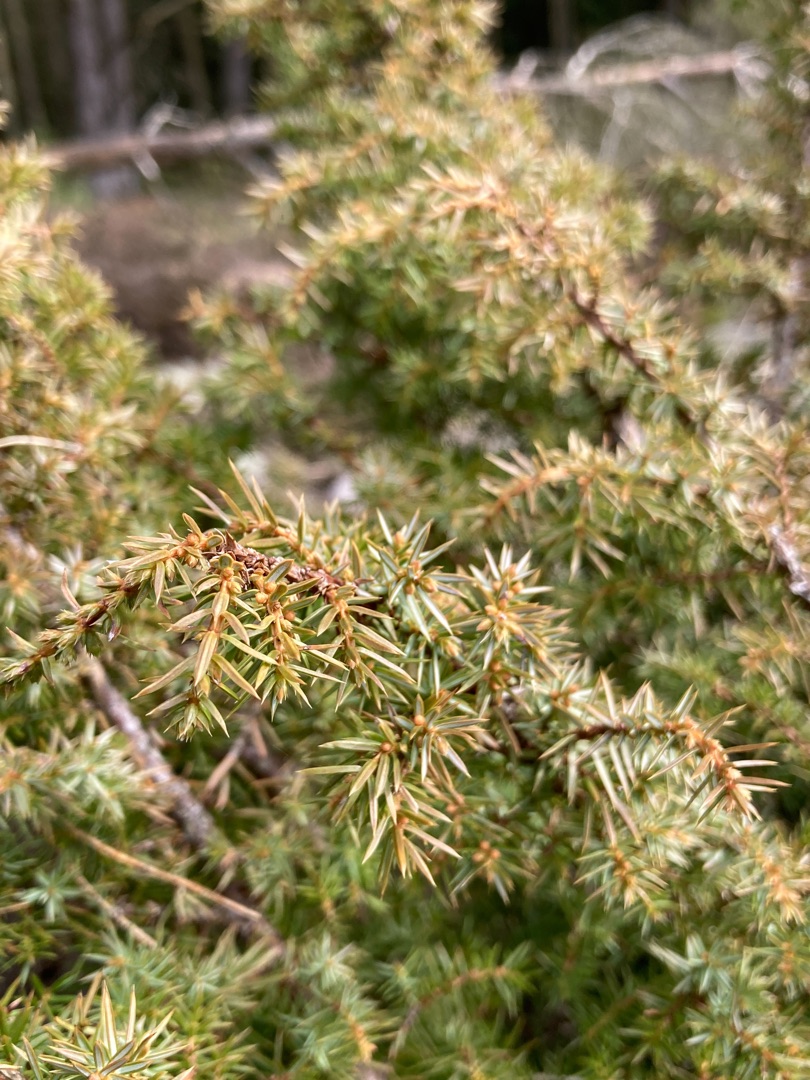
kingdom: Plantae
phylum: Tracheophyta
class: Pinopsida
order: Pinales
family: Cupressaceae
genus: Juniperus
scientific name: Juniperus communis
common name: Almindelig ene
